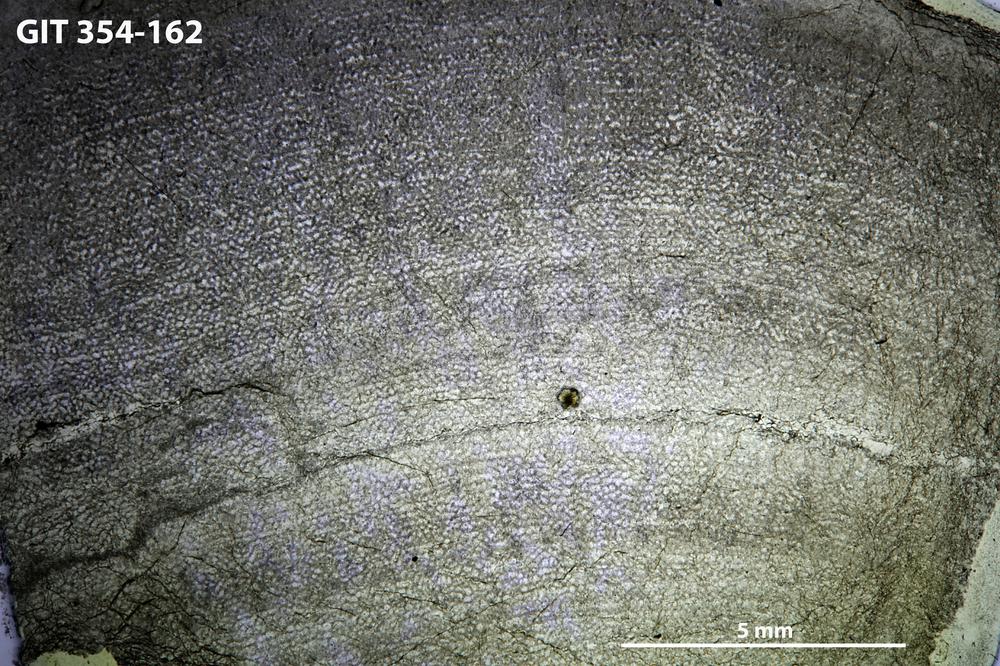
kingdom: Animalia
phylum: Porifera
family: Ecclimadictyidae
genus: Ecclimadictyon
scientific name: Ecclimadictyon Clathrodictyon microvesiculosum
